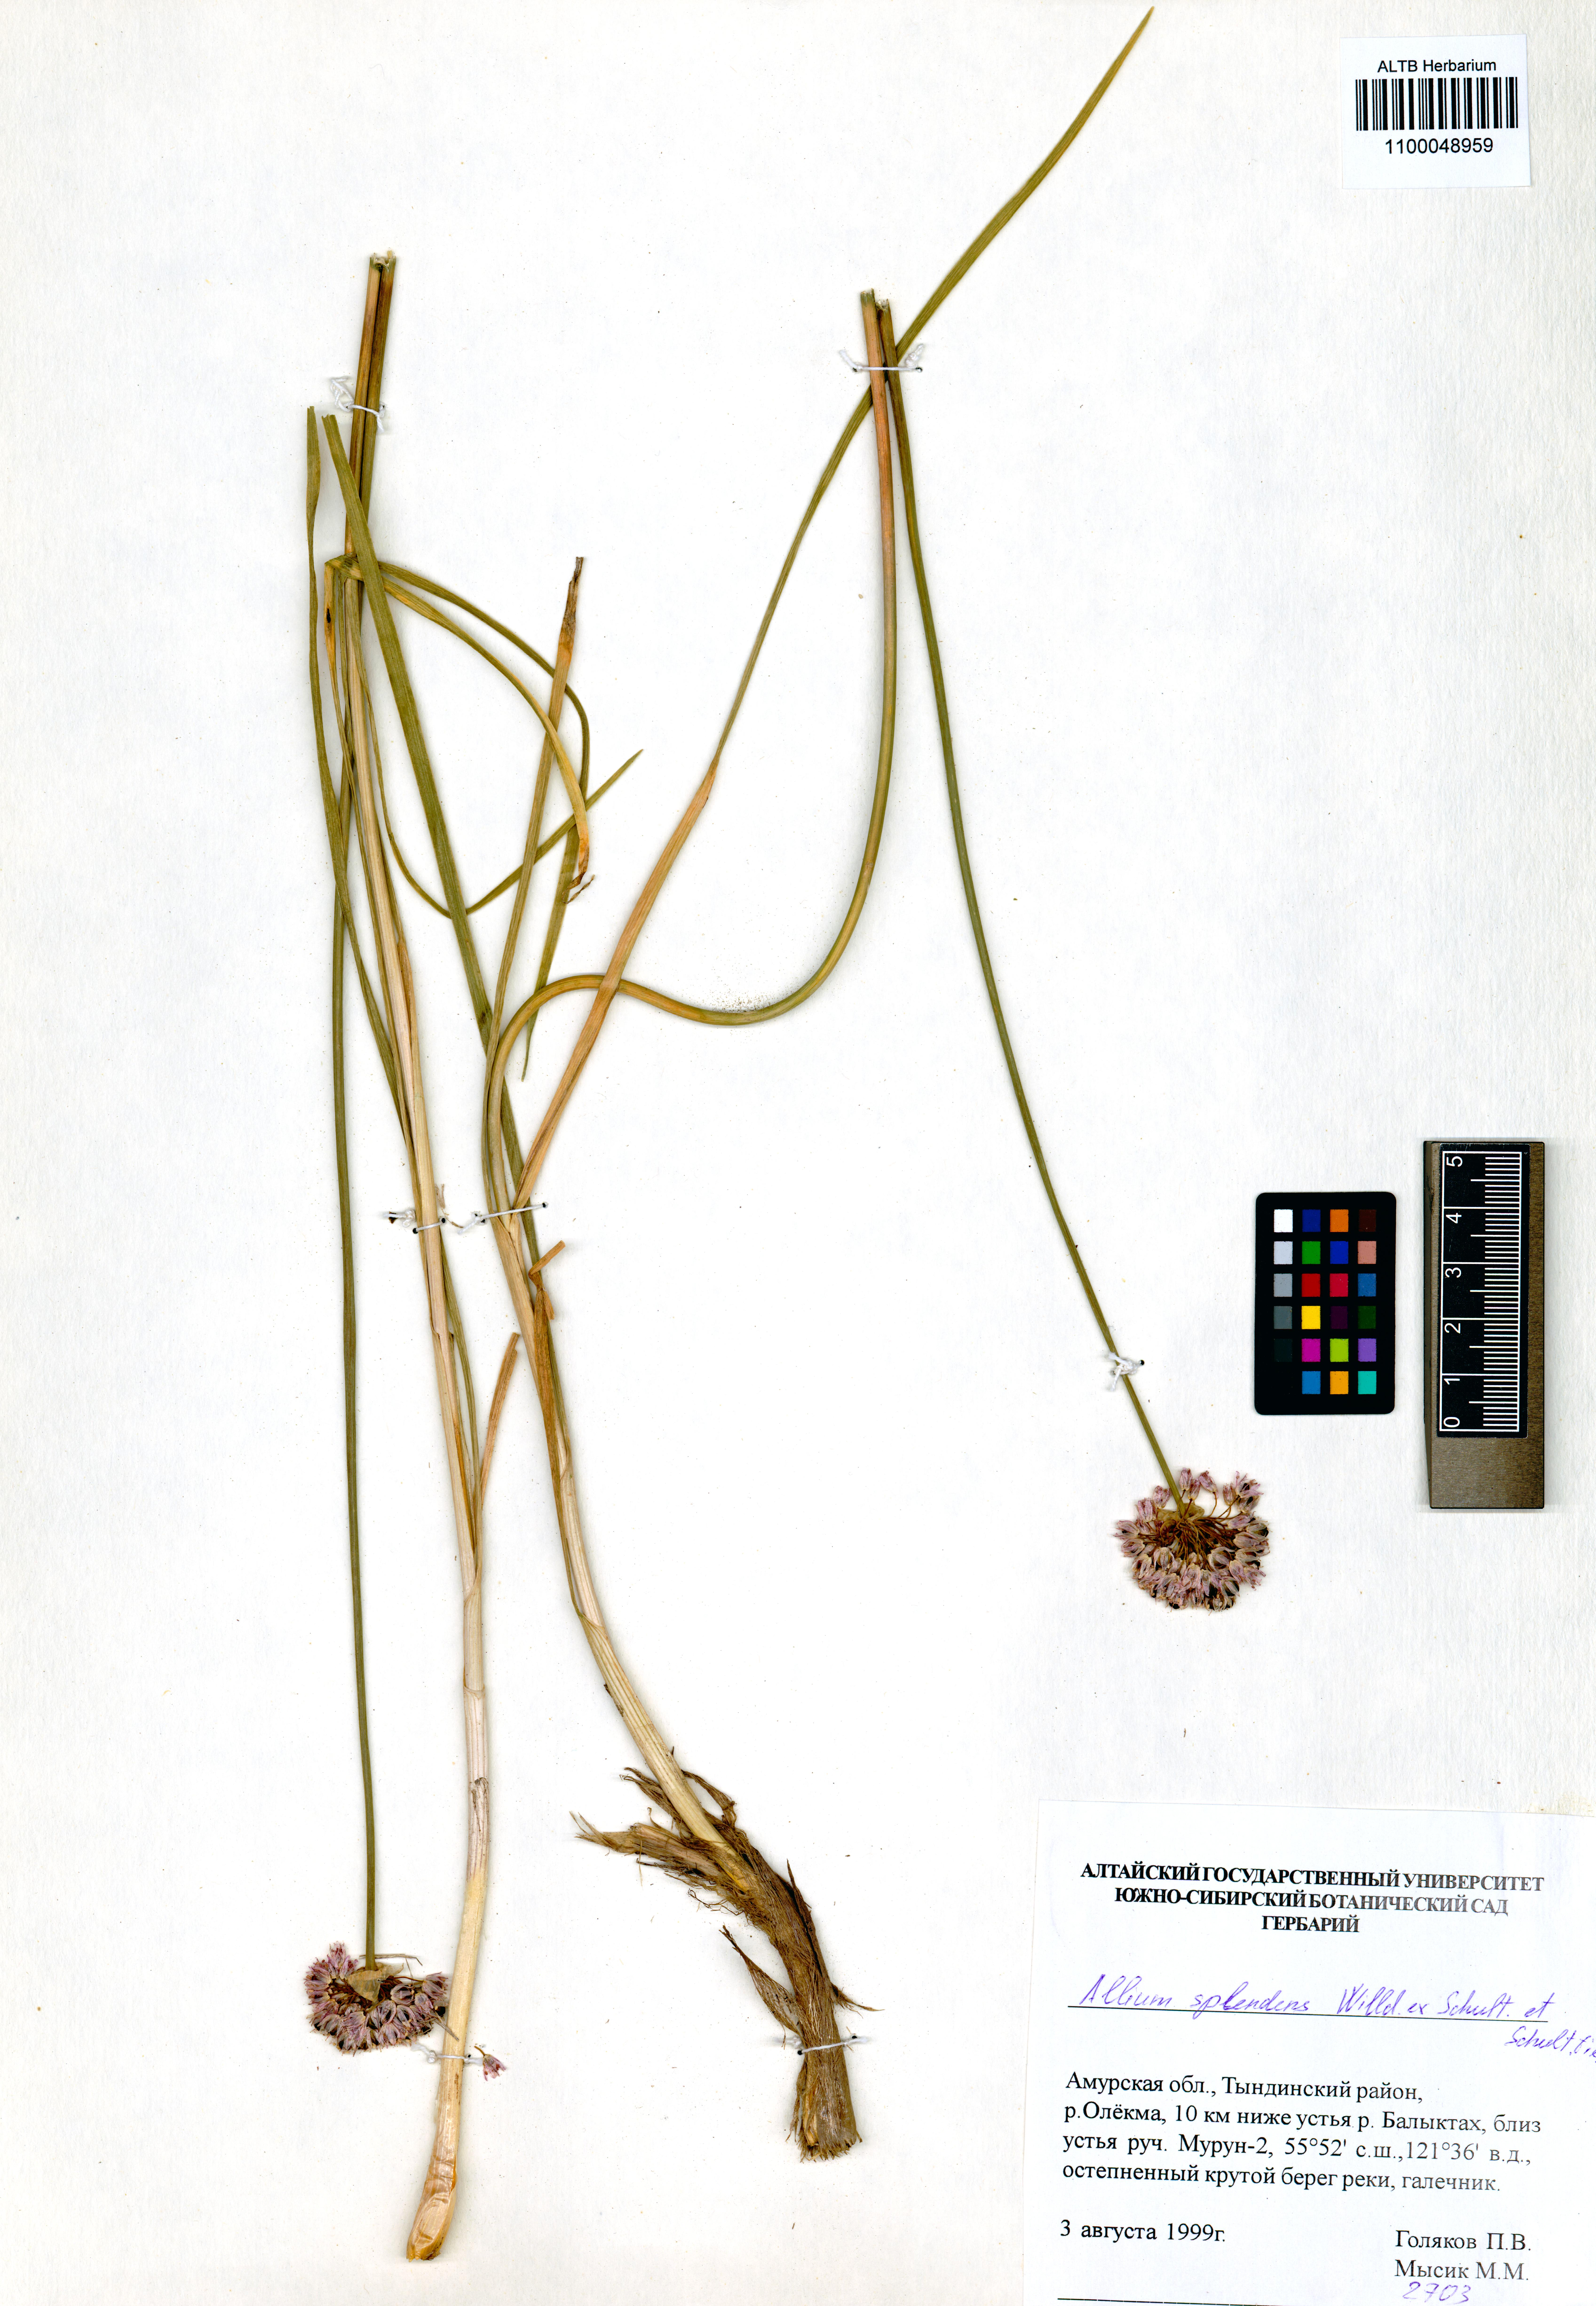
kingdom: Plantae
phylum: Tracheophyta
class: Liliopsida
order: Asparagales
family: Amaryllidaceae
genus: Allium
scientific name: Allium splendens
